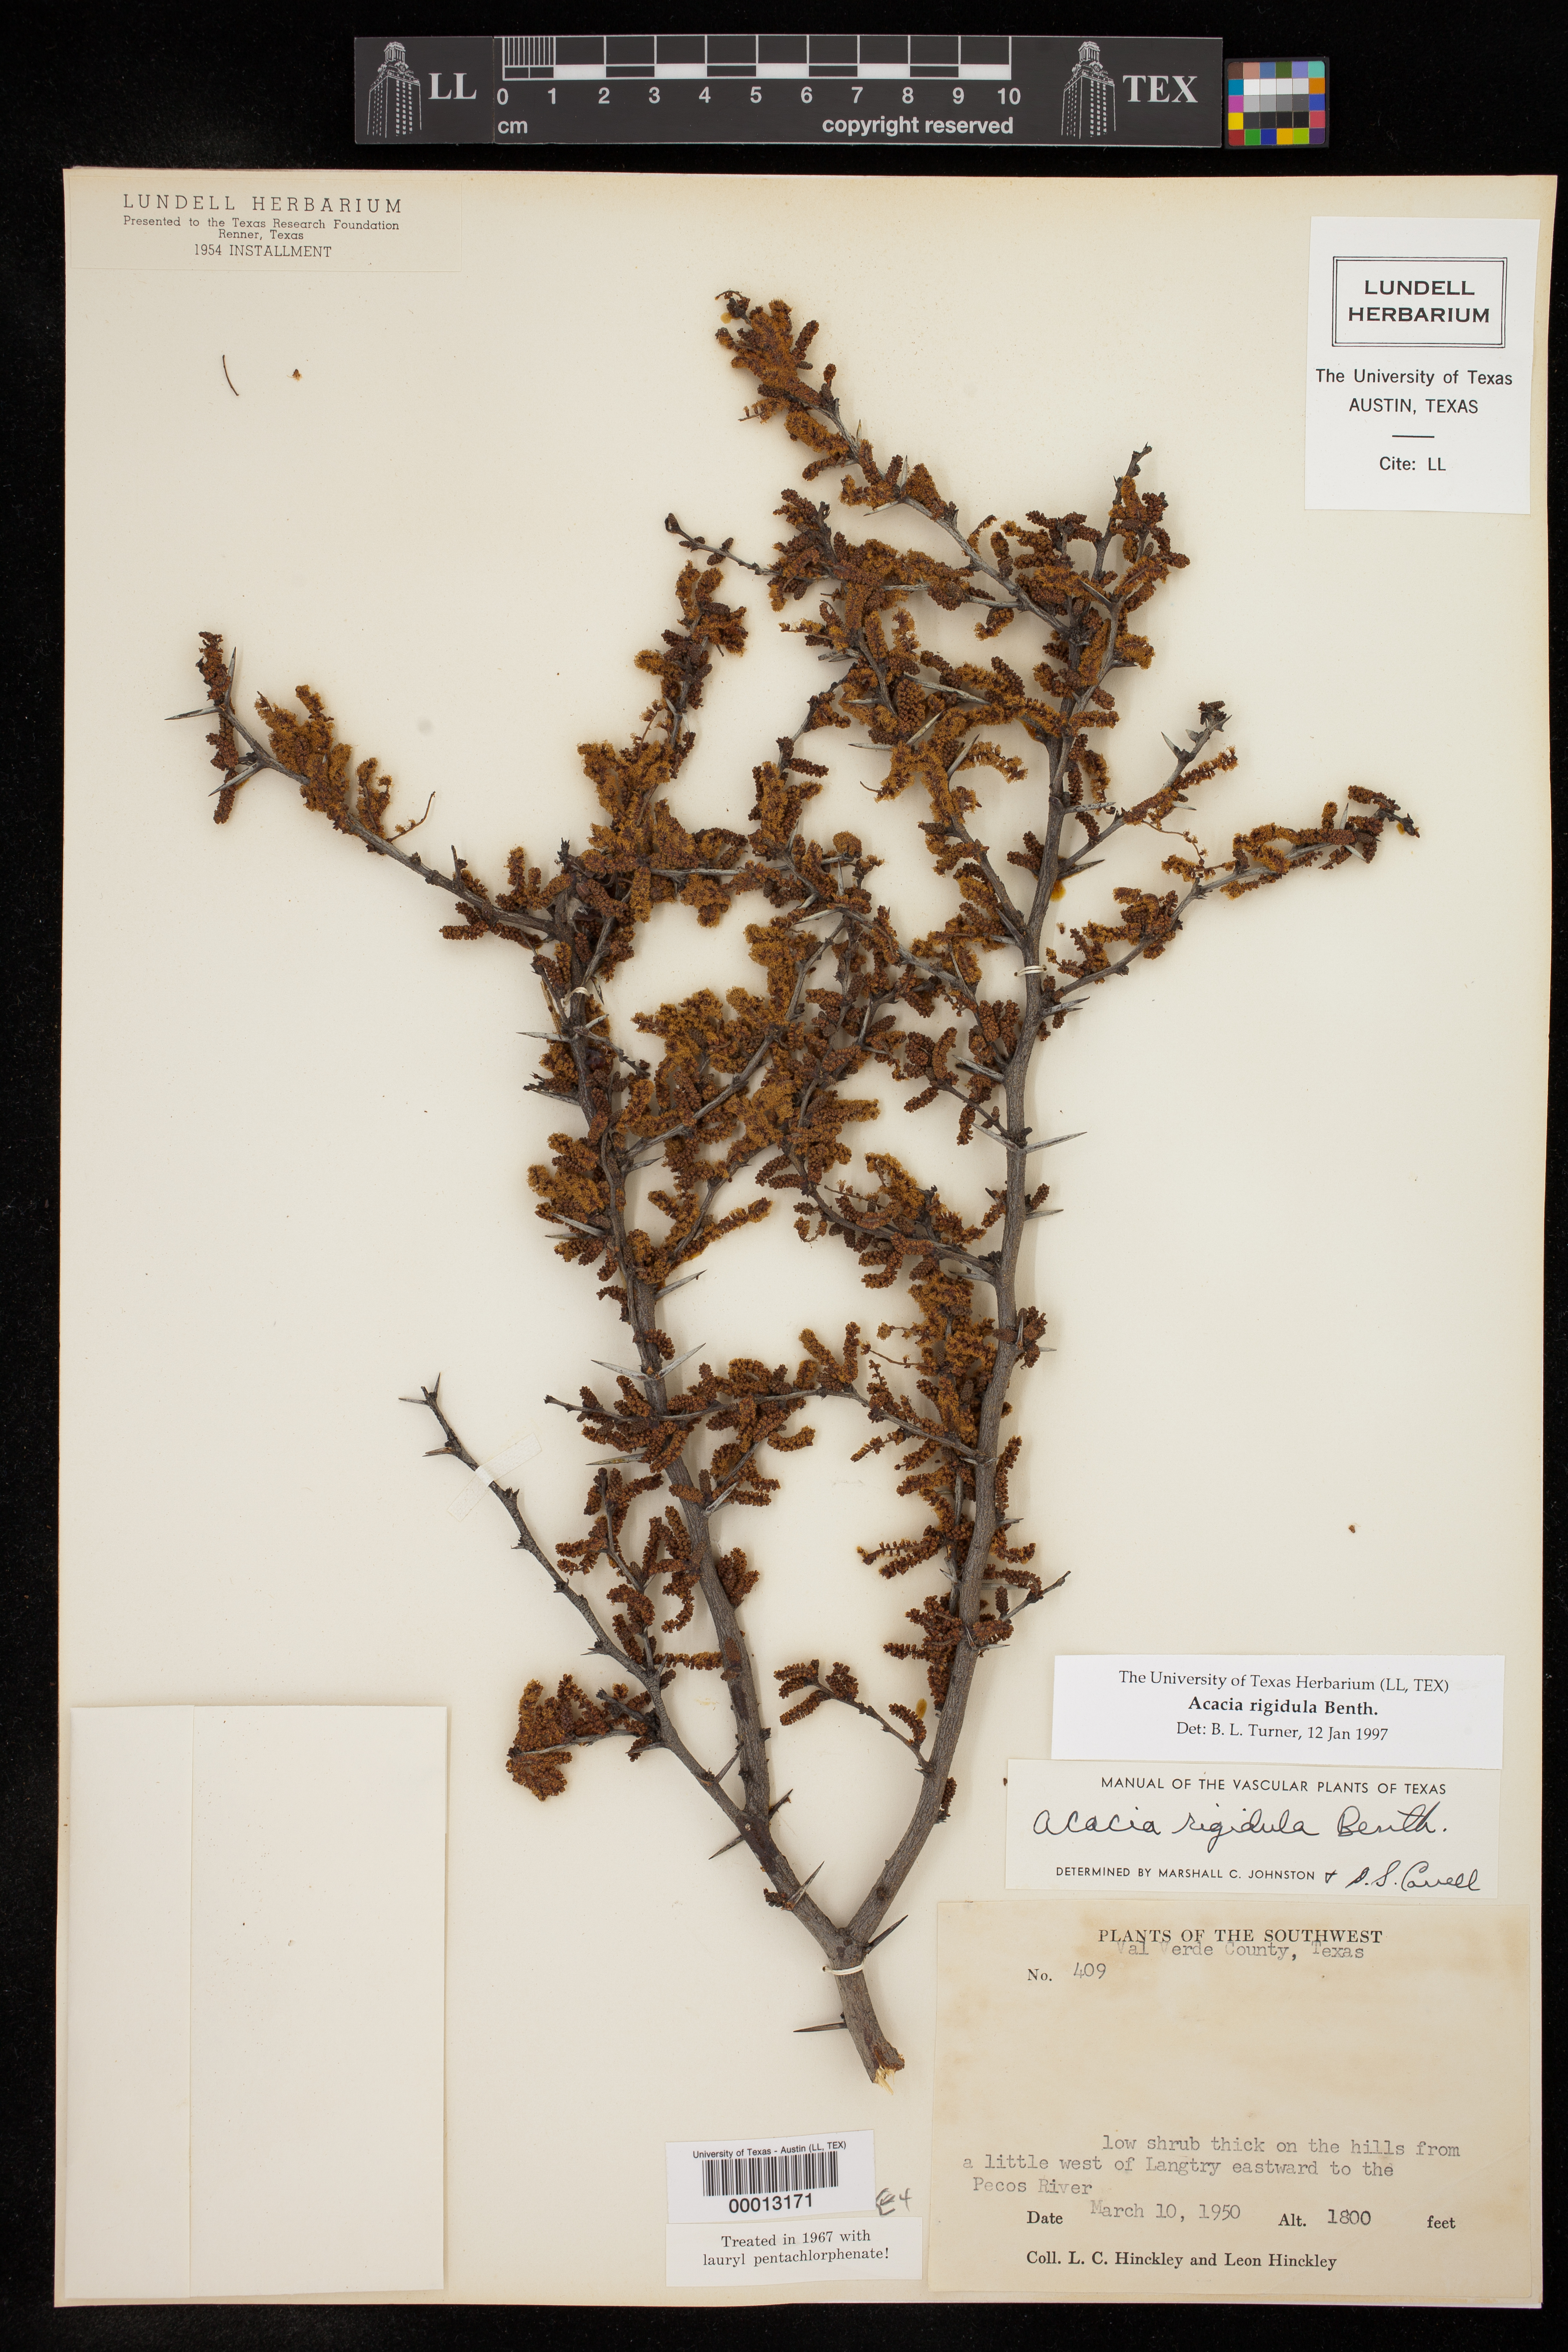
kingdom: Plantae
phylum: Tracheophyta
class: Magnoliopsida
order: Fabales
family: Fabaceae
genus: Vachellia
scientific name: Vachellia rigidula
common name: Blackbrush
